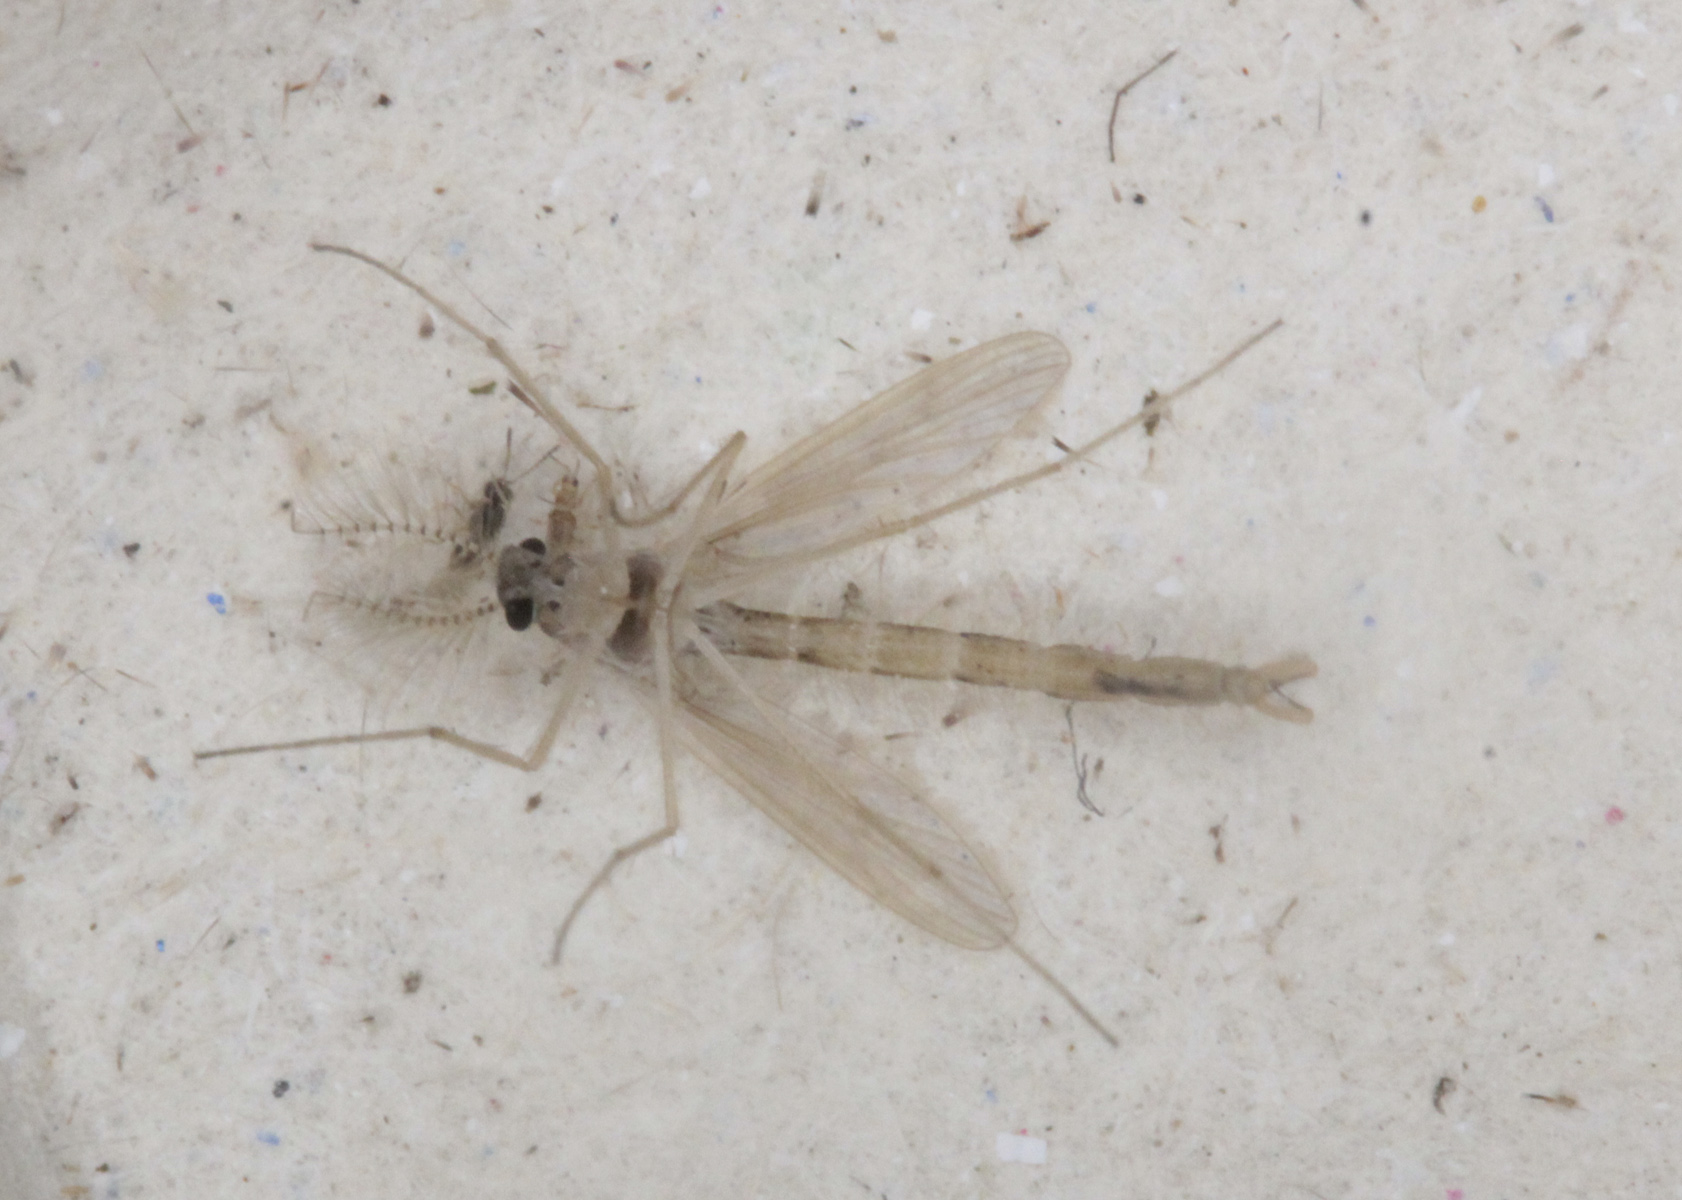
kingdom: Animalia
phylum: Arthropoda
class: Insecta
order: Diptera
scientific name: Diptera
